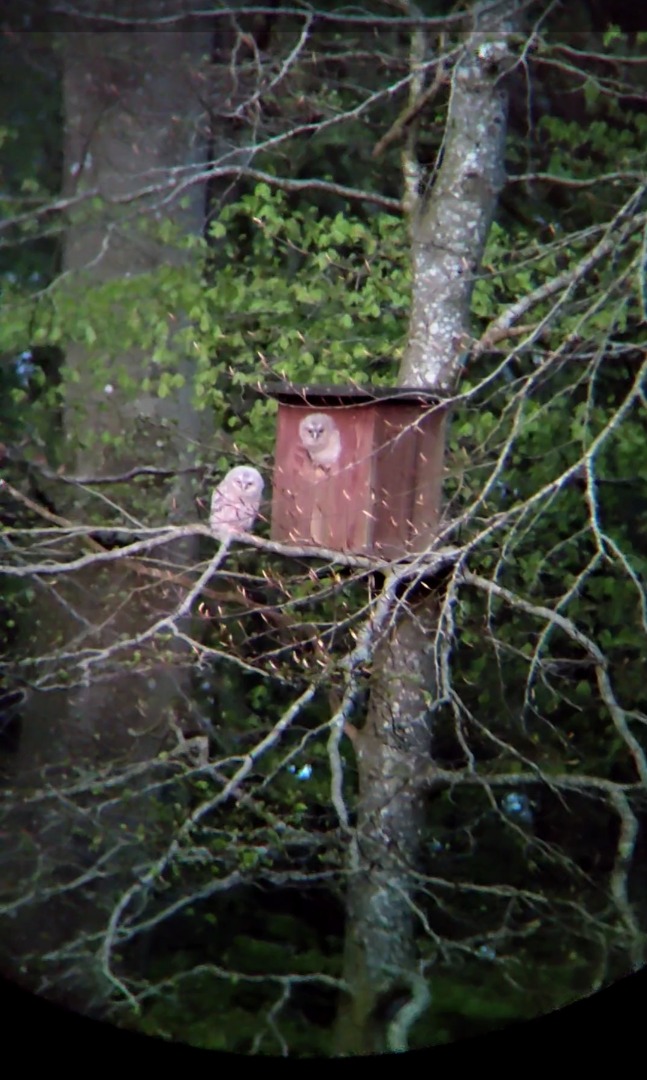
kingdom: Animalia
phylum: Chordata
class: Aves
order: Strigiformes
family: Strigidae
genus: Strix
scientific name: Strix aluco
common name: Natugle
